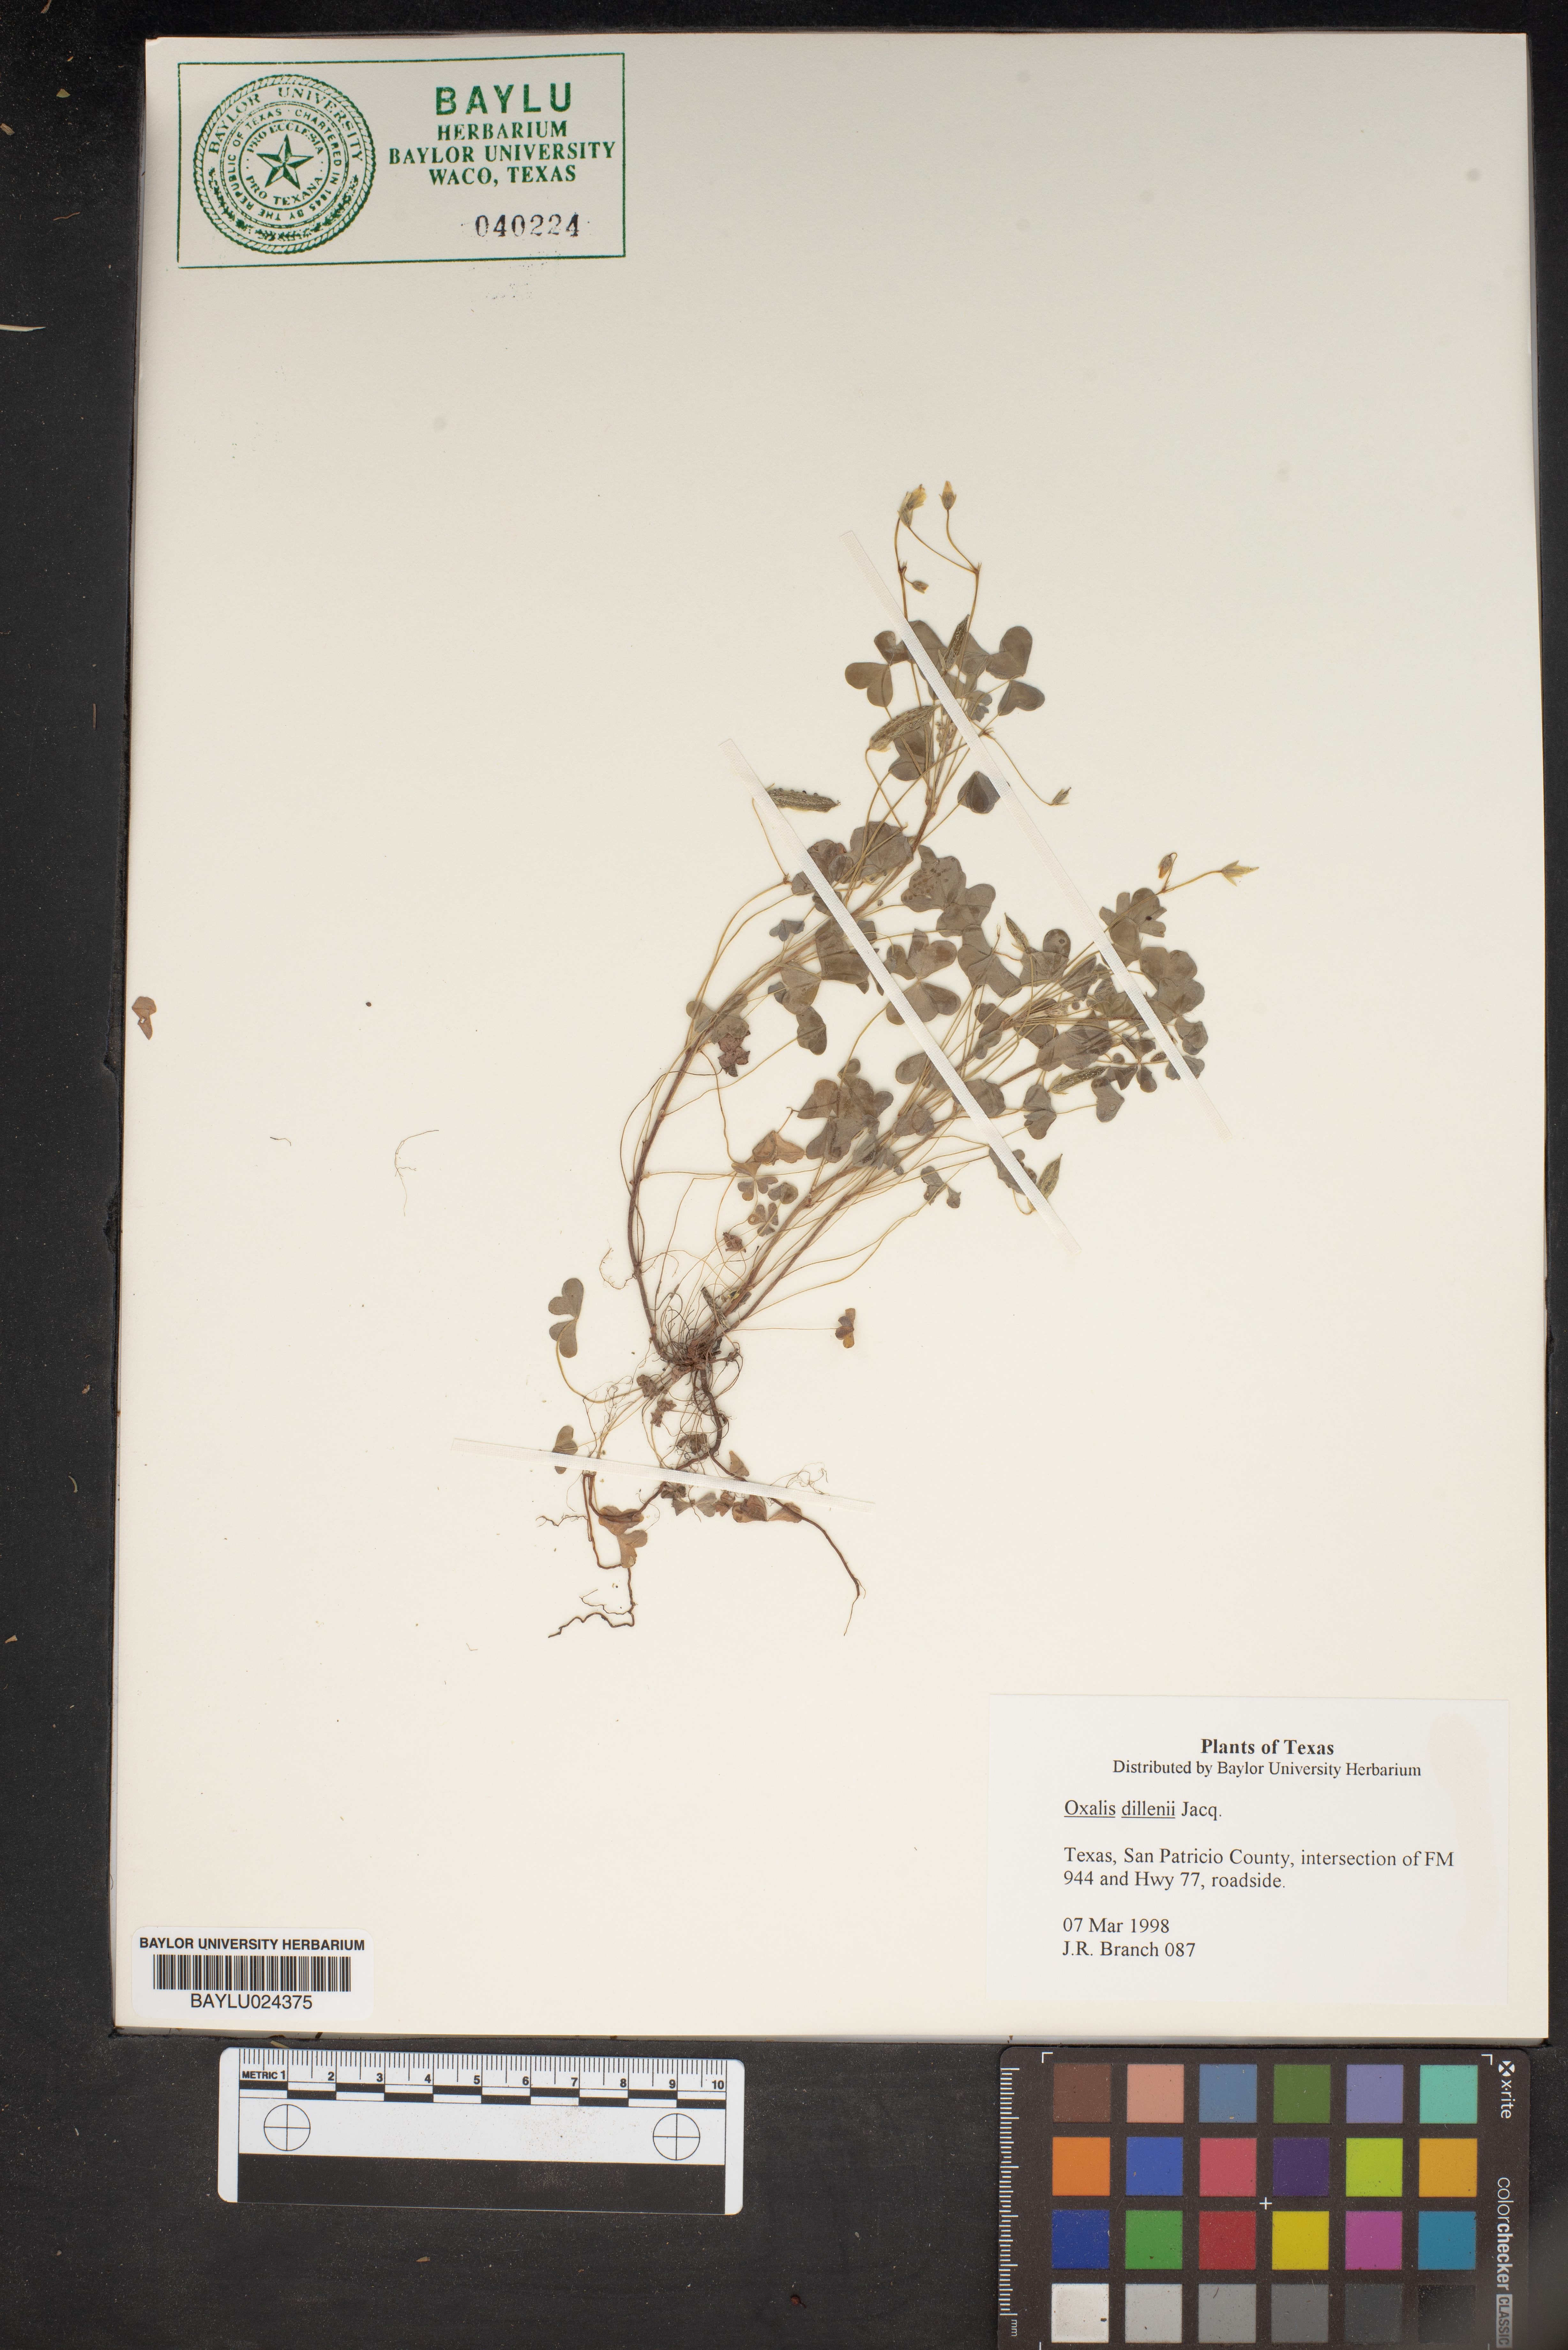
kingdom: Plantae
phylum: Tracheophyta
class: Magnoliopsida
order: Oxalidales
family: Oxalidaceae
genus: Oxalis
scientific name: Oxalis dillenii
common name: Sussex yellow-sorrel
